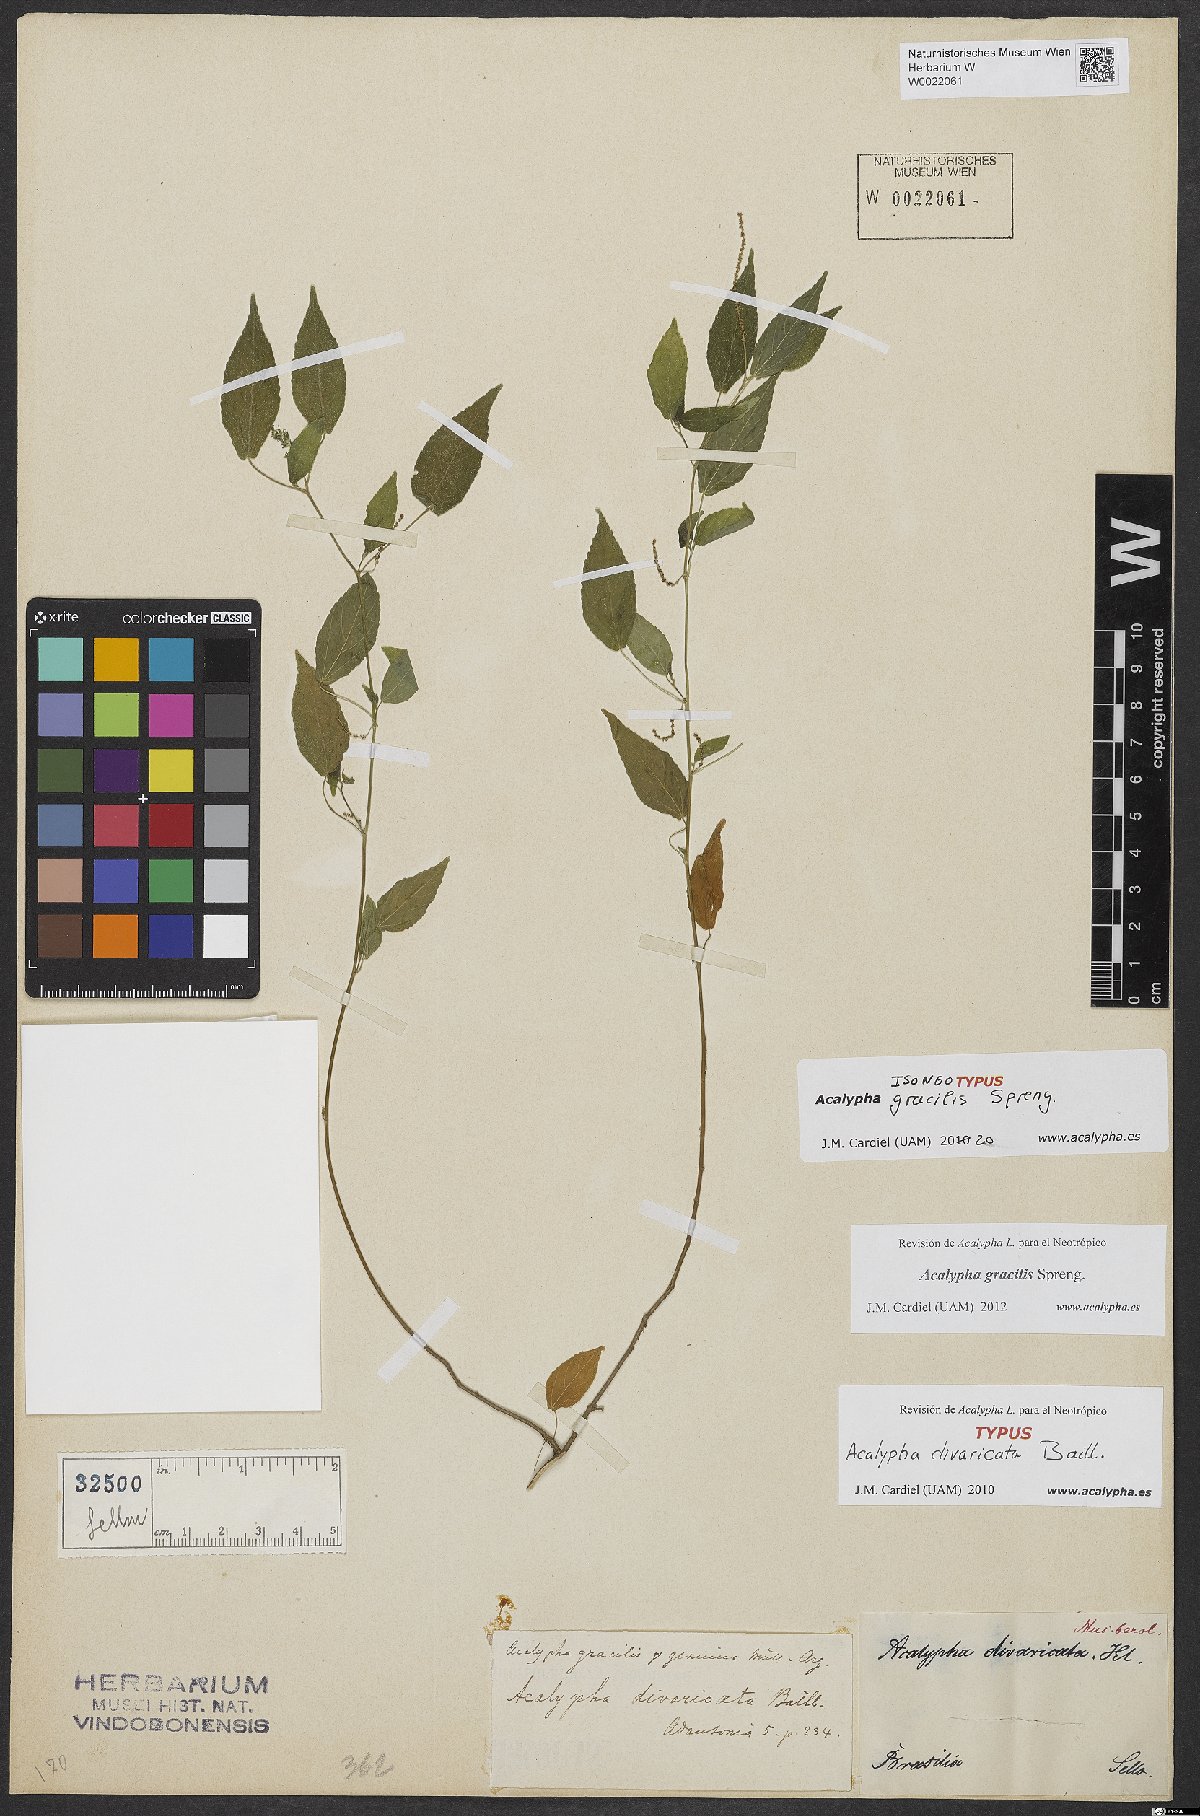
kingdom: Plantae
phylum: Tracheophyta
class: Magnoliopsida
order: Malpighiales
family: Euphorbiaceae
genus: Acalypha
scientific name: Acalypha gracilis
